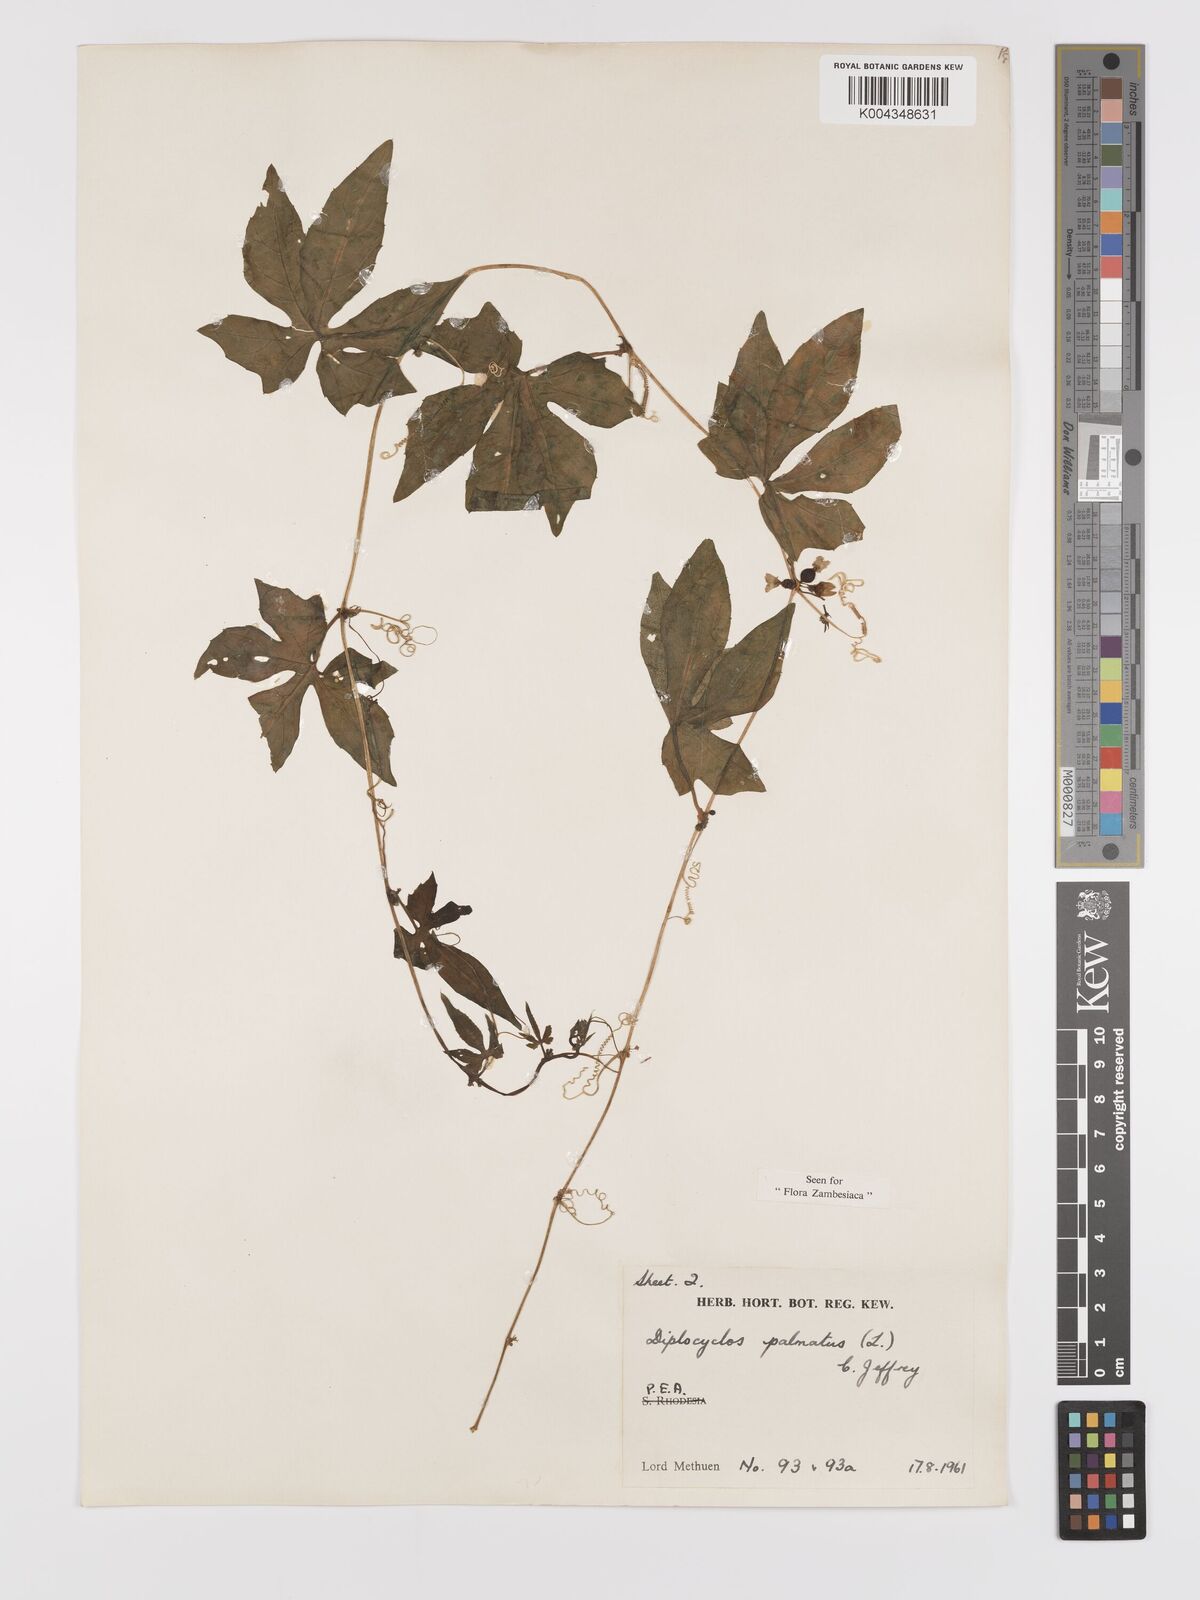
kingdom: Plantae
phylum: Tracheophyta
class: Magnoliopsida
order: Cucurbitales
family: Cucurbitaceae
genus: Diplocyclos
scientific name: Diplocyclos palmatus
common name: Striped-cucumber
